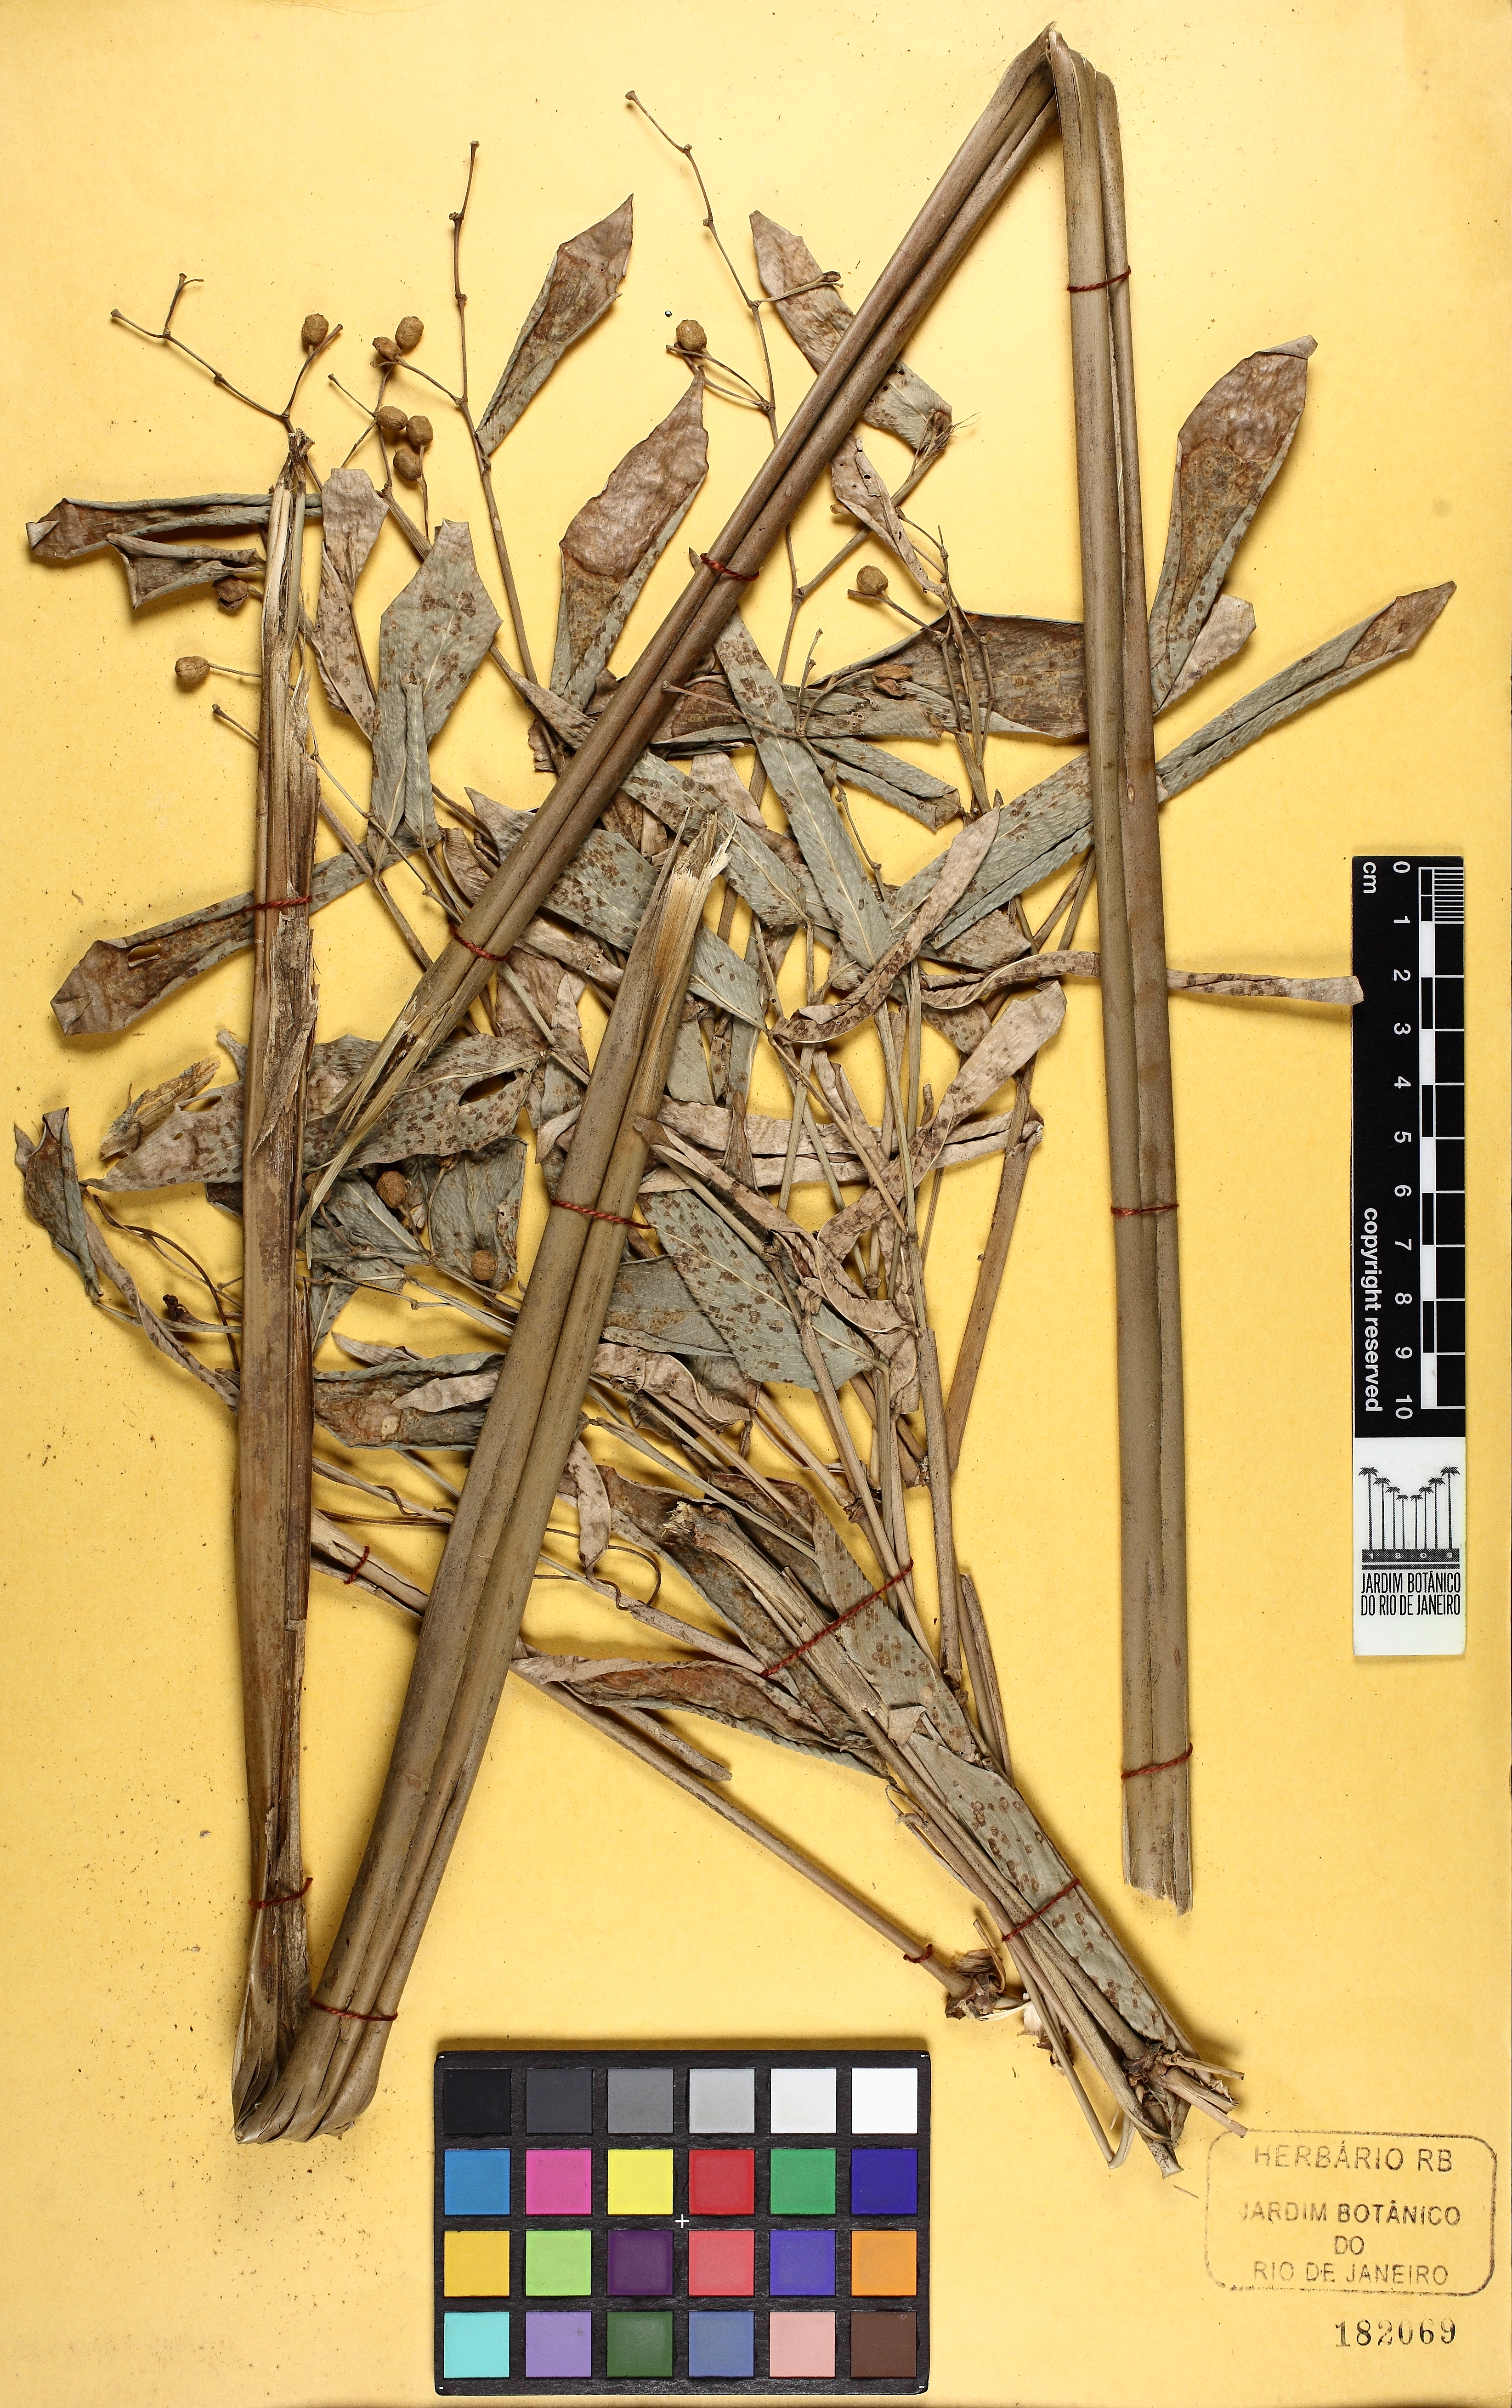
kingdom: Plantae
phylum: Tracheophyta
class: Liliopsida
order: Zingiberales
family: Marantaceae
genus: Stromanthe
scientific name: Stromanthe tonckat
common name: Stromanthe
